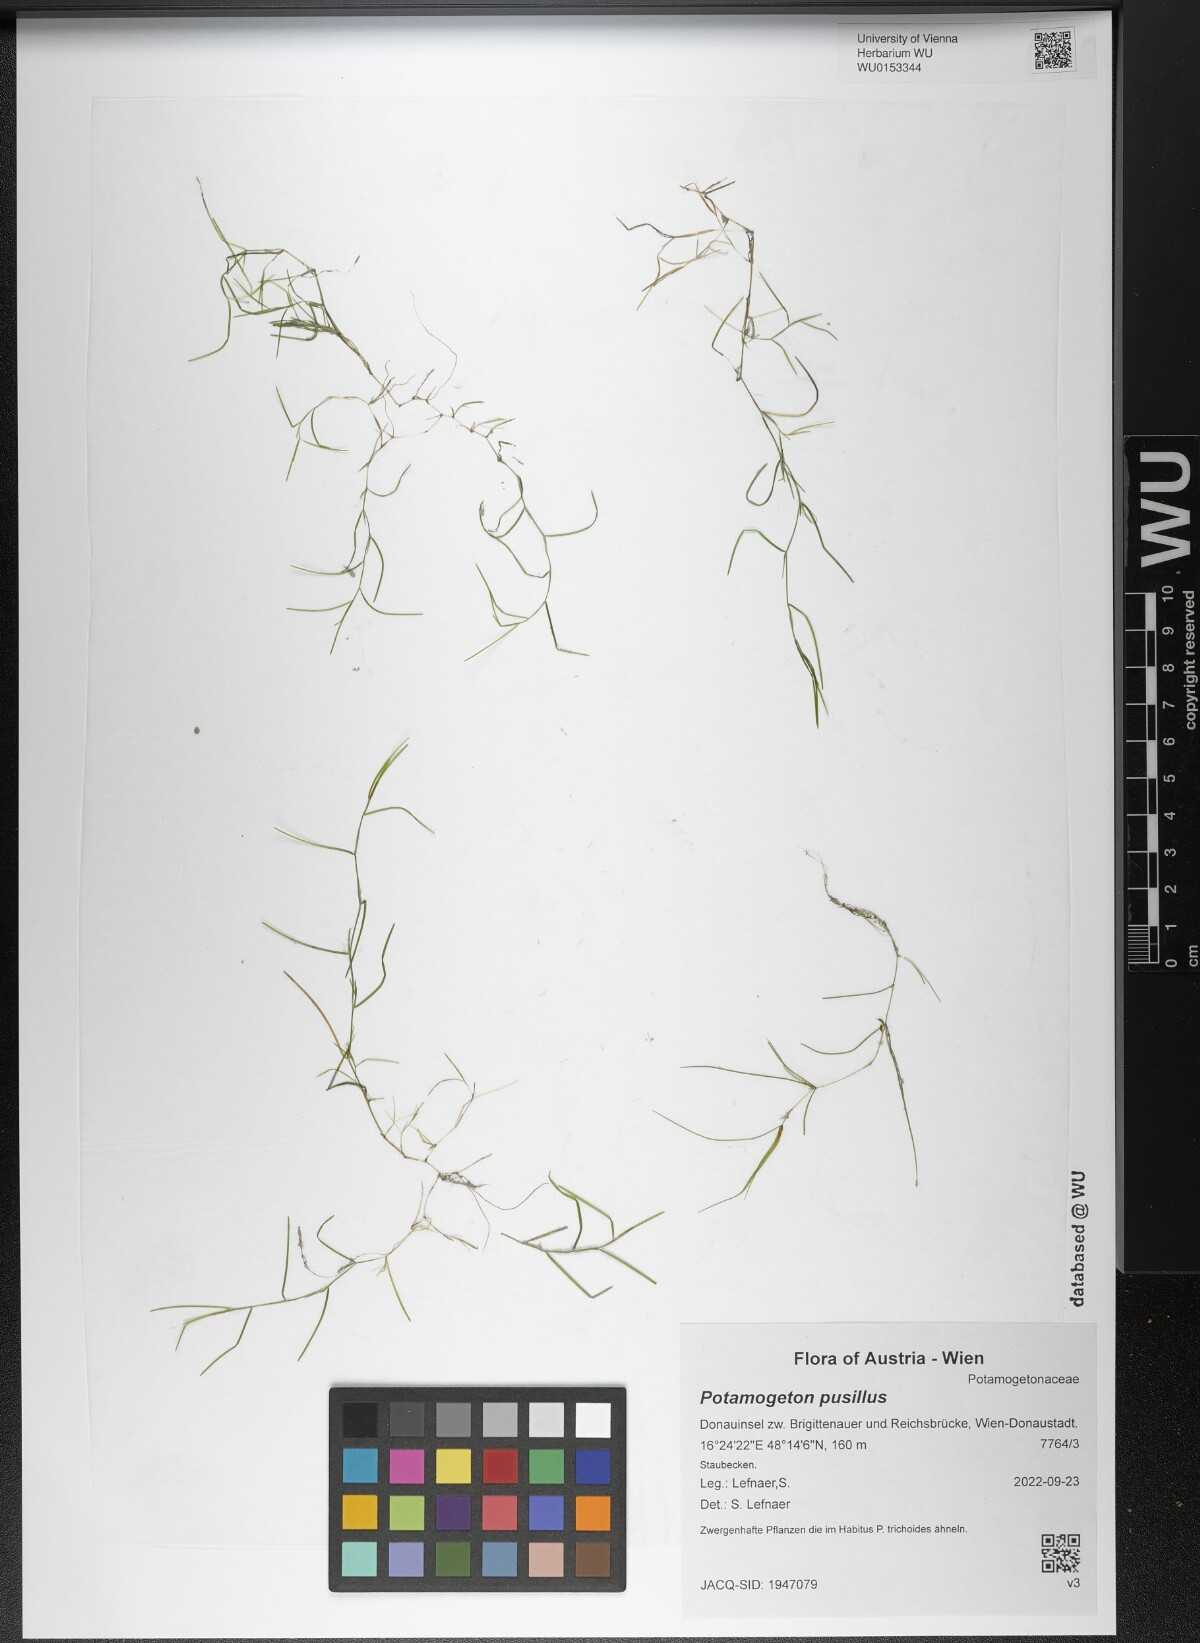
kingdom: Plantae
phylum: Tracheophyta
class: Liliopsida
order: Alismatales
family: Potamogetonaceae
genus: Potamogeton
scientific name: Potamogeton pusillus
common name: Lesser pondweed
